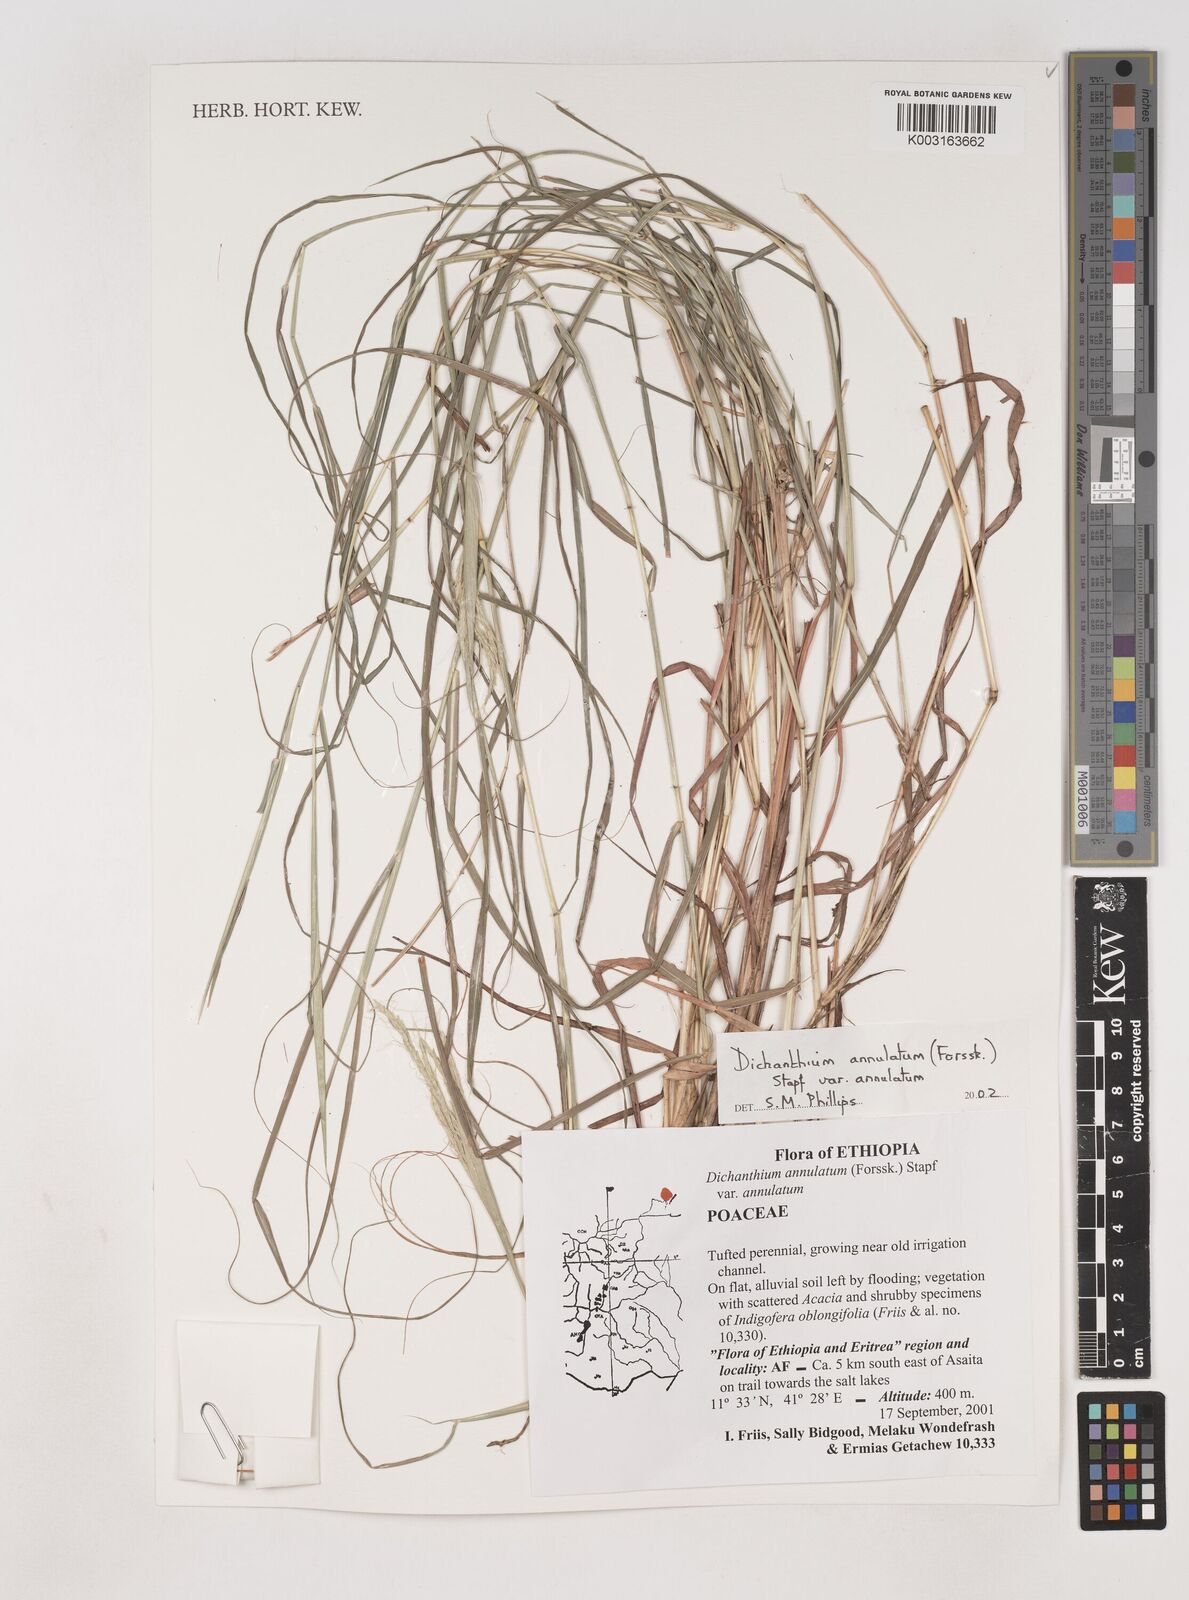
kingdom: Plantae
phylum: Tracheophyta
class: Liliopsida
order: Poales
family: Poaceae
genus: Dichanthium
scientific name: Dichanthium annulatum
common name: Kleberg's bluestem
